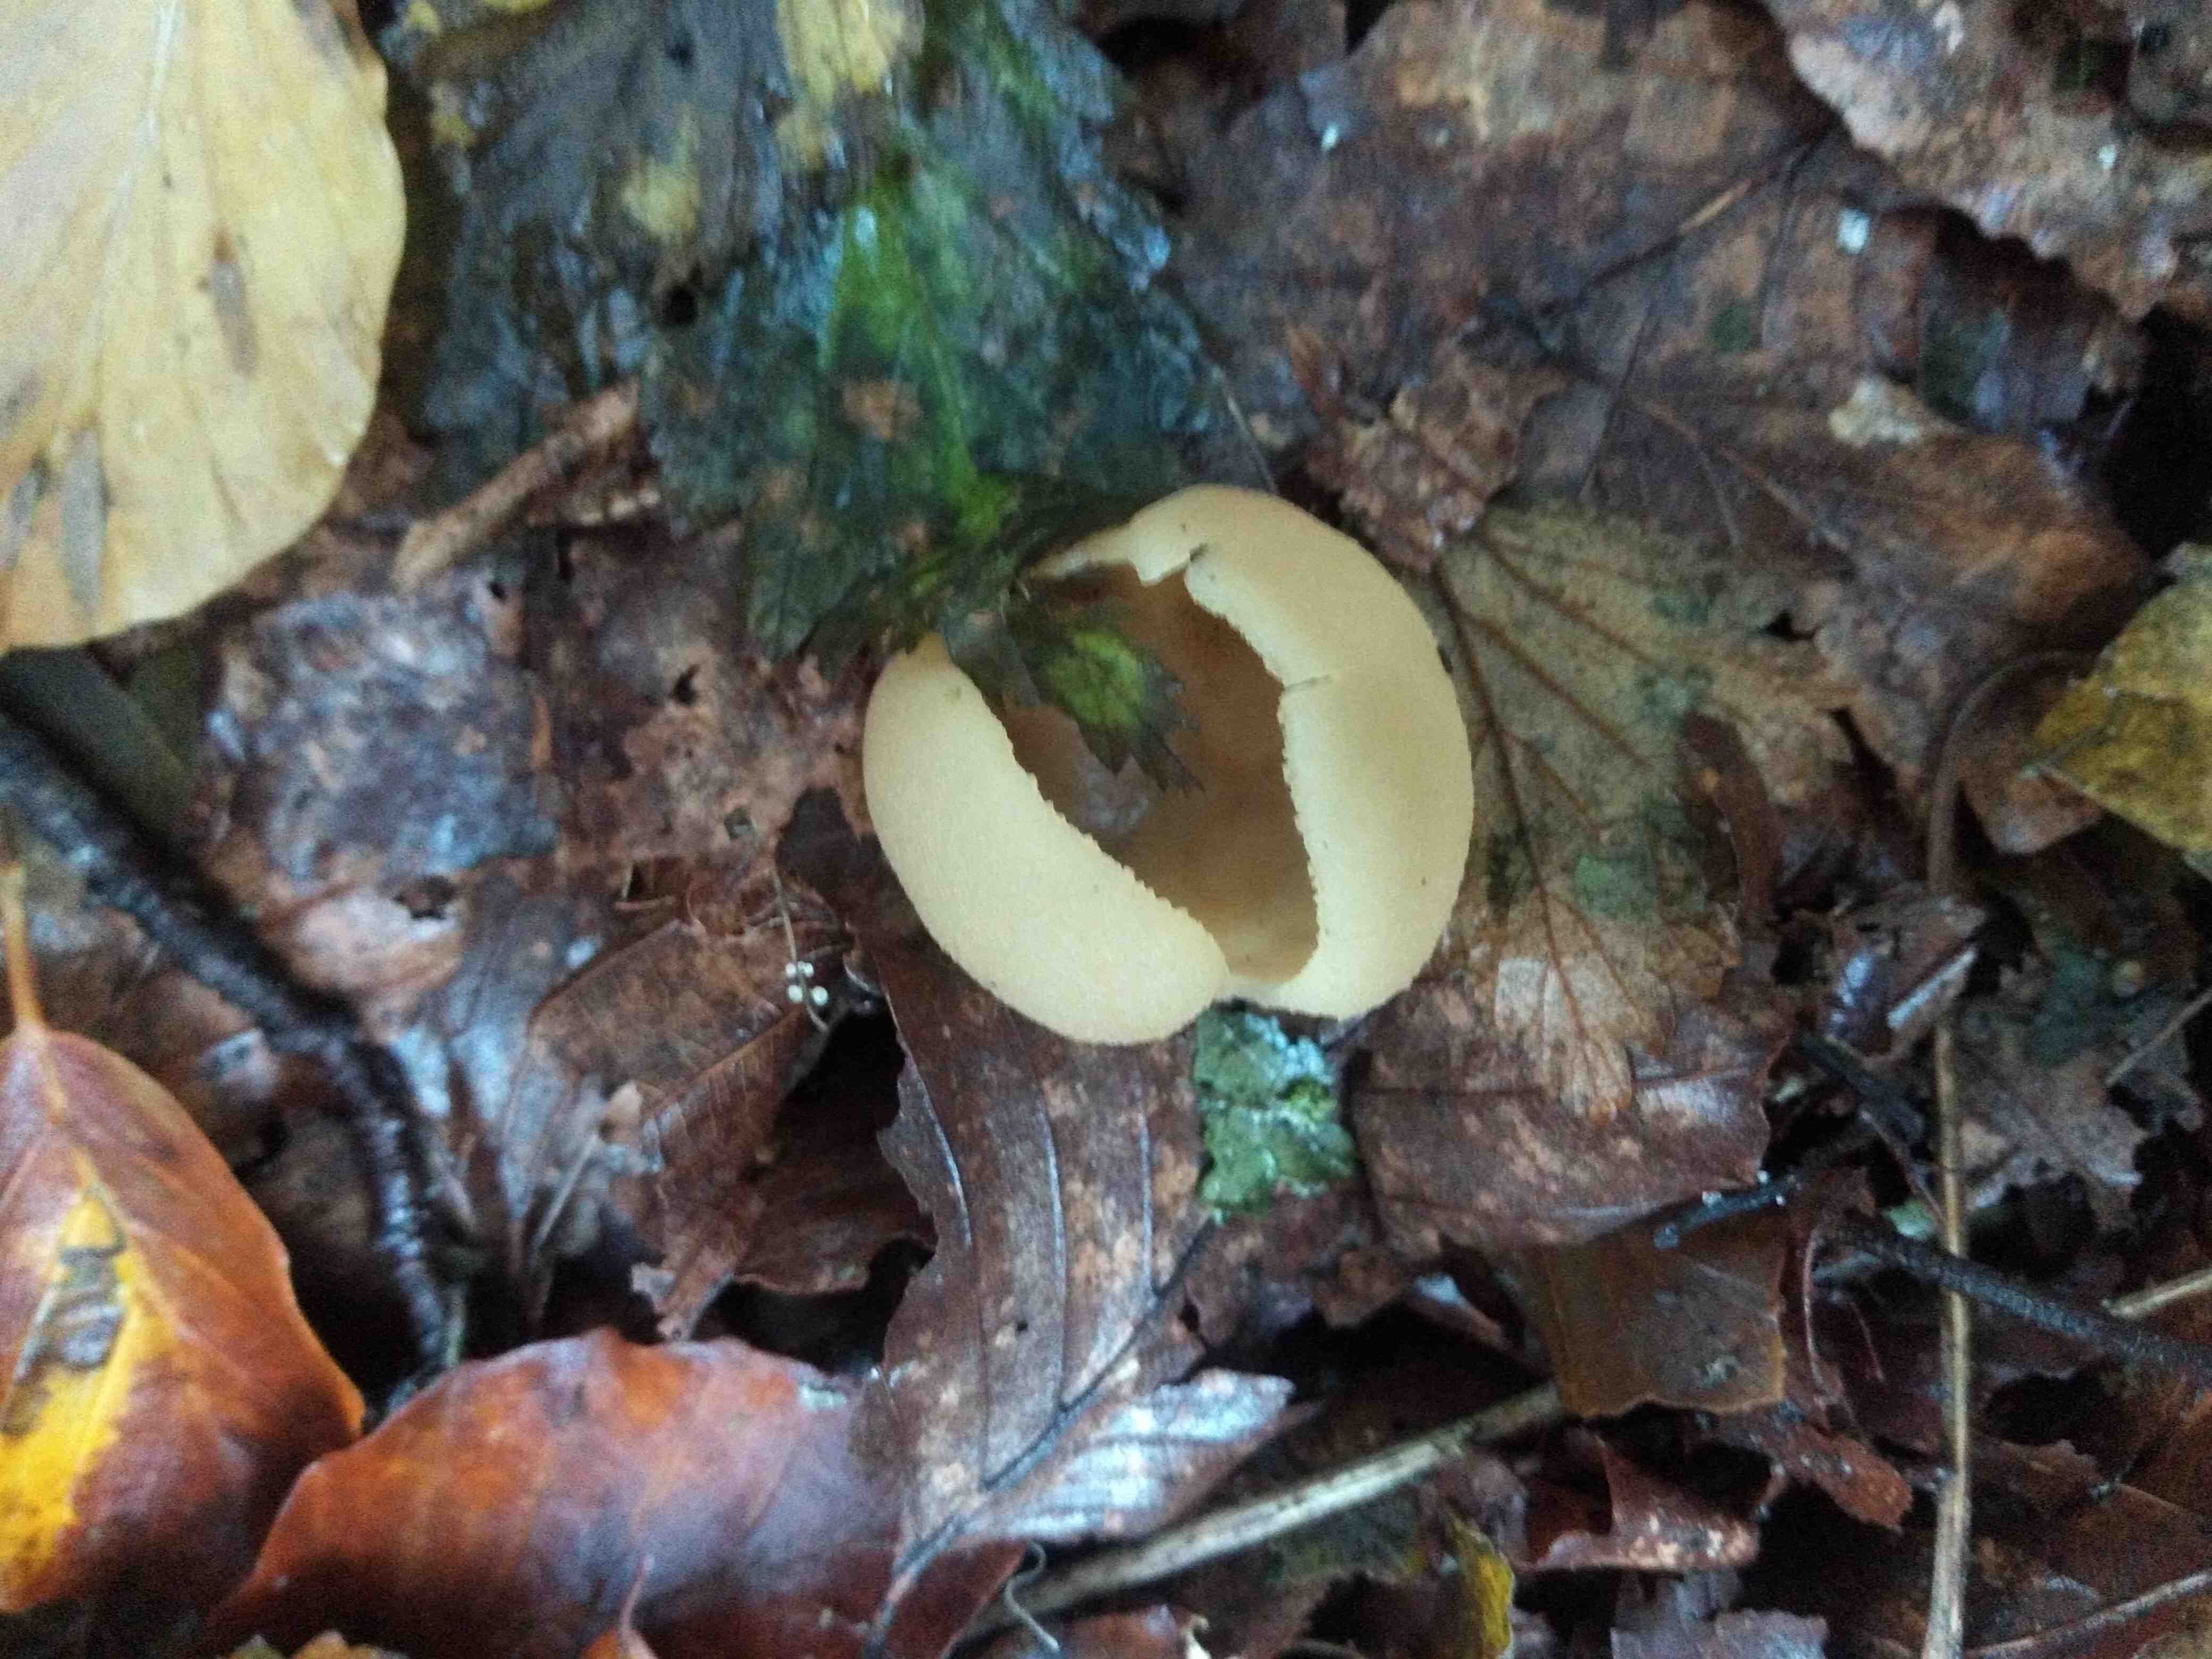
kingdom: Fungi
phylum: Ascomycota
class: Pezizomycetes
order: Pezizales
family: Pezizaceae
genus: Peziza
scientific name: Peziza
